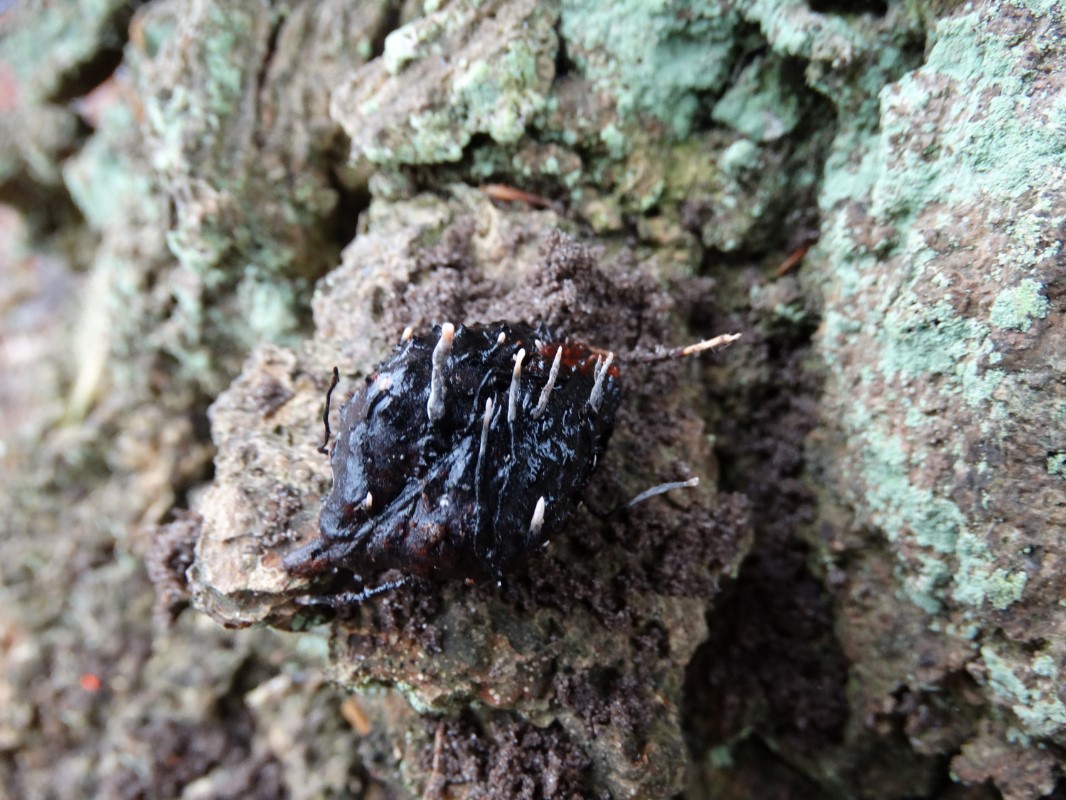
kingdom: Fungi
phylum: Ascomycota
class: Sordariomycetes
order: Xylariales
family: Xylariaceae
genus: Xylaria
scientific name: Xylaria carpophila
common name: bogskål-stødsvamp
